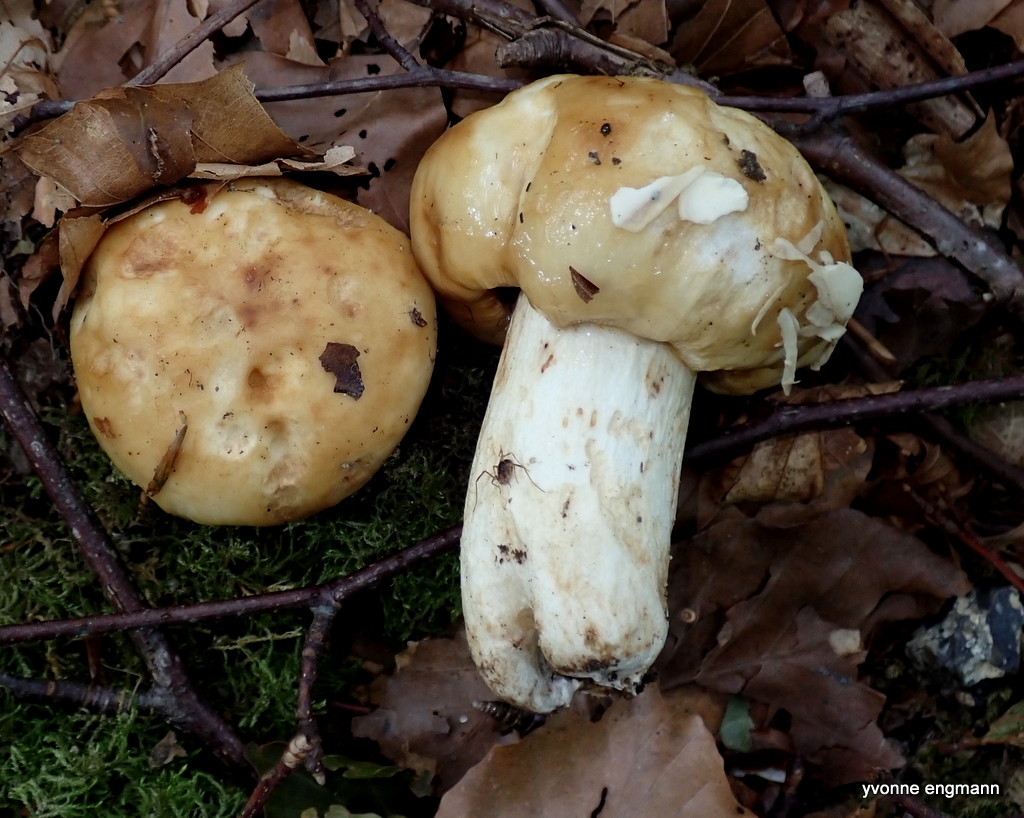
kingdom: Fungi
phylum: Basidiomycota
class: Agaricomycetes
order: Russulales
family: Russulaceae
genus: Russula
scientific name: Russula foetens
